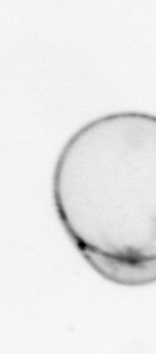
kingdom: Chromista
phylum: Myzozoa
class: Dinophyceae
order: Noctilucales
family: Noctilucaceae
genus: Noctiluca
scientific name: Noctiluca scintillans
